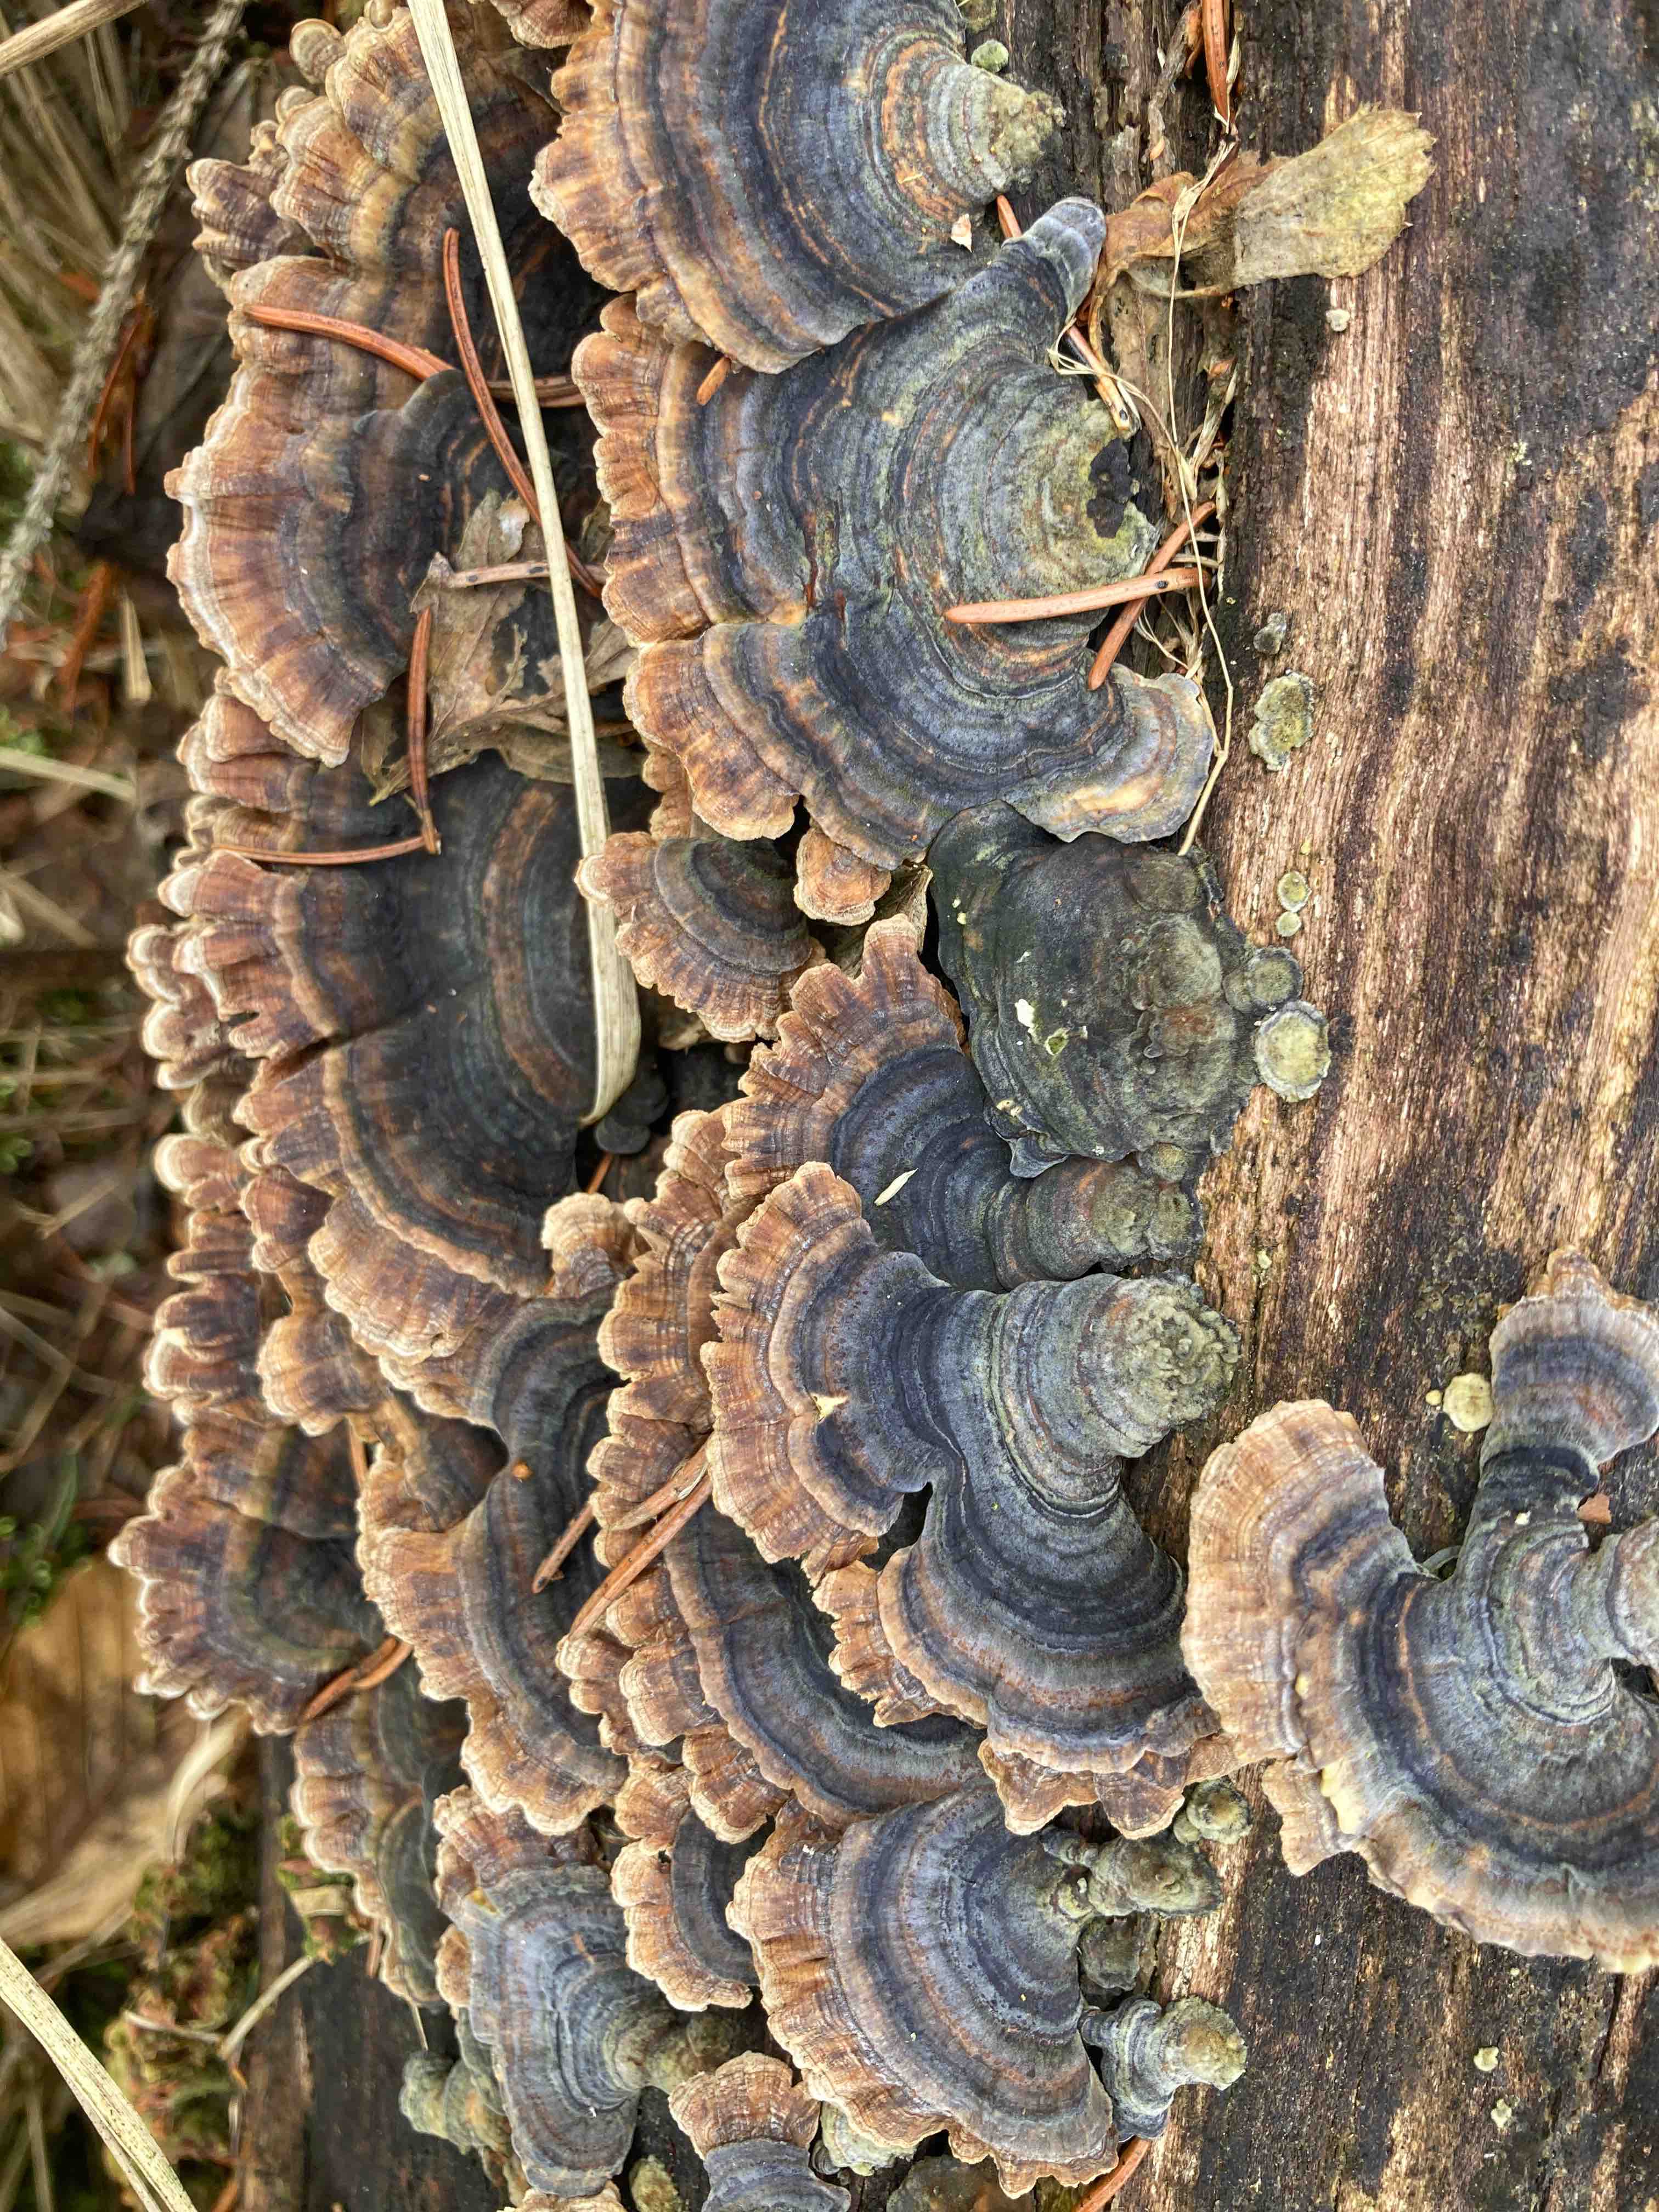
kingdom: Fungi
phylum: Basidiomycota
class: Agaricomycetes
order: Polyporales
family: Polyporaceae
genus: Trametes
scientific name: Trametes versicolor
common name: broget læderporesvamp
